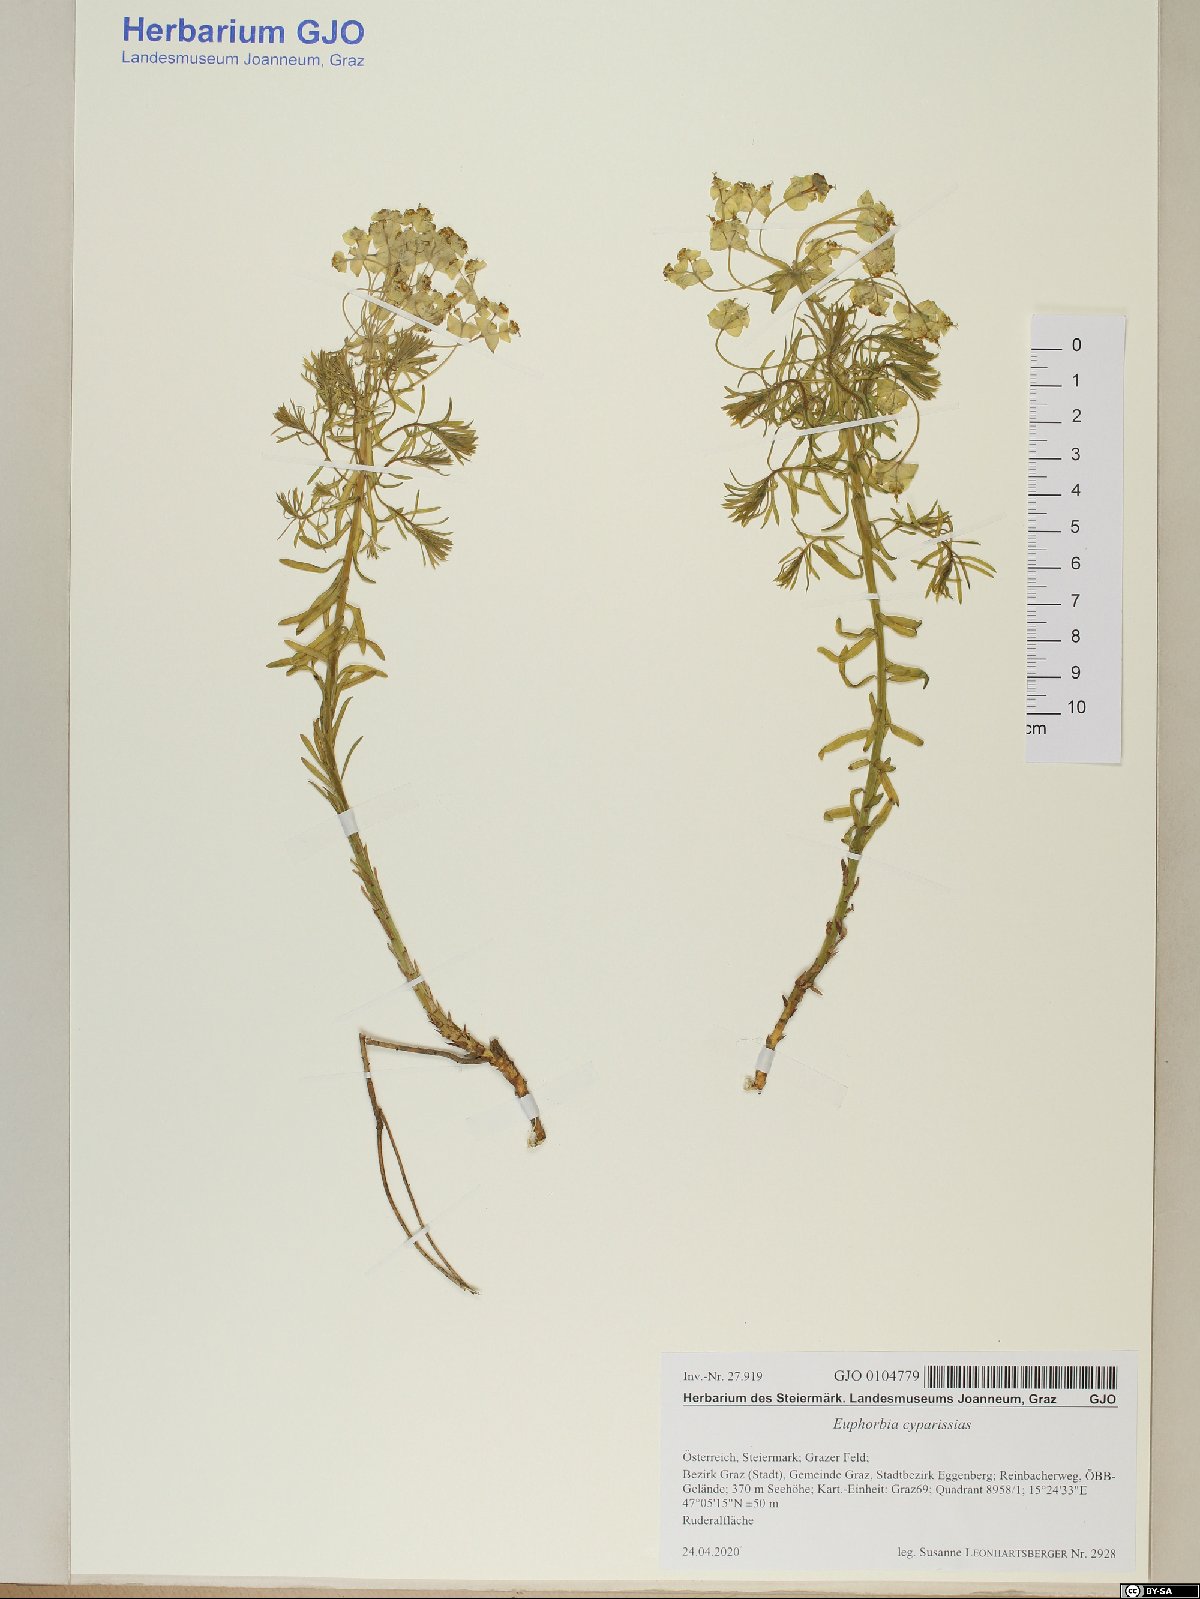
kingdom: Plantae
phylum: Tracheophyta
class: Magnoliopsida
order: Malpighiales
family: Euphorbiaceae
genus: Euphorbia
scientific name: Euphorbia cyparissias
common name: Cypress spurge
